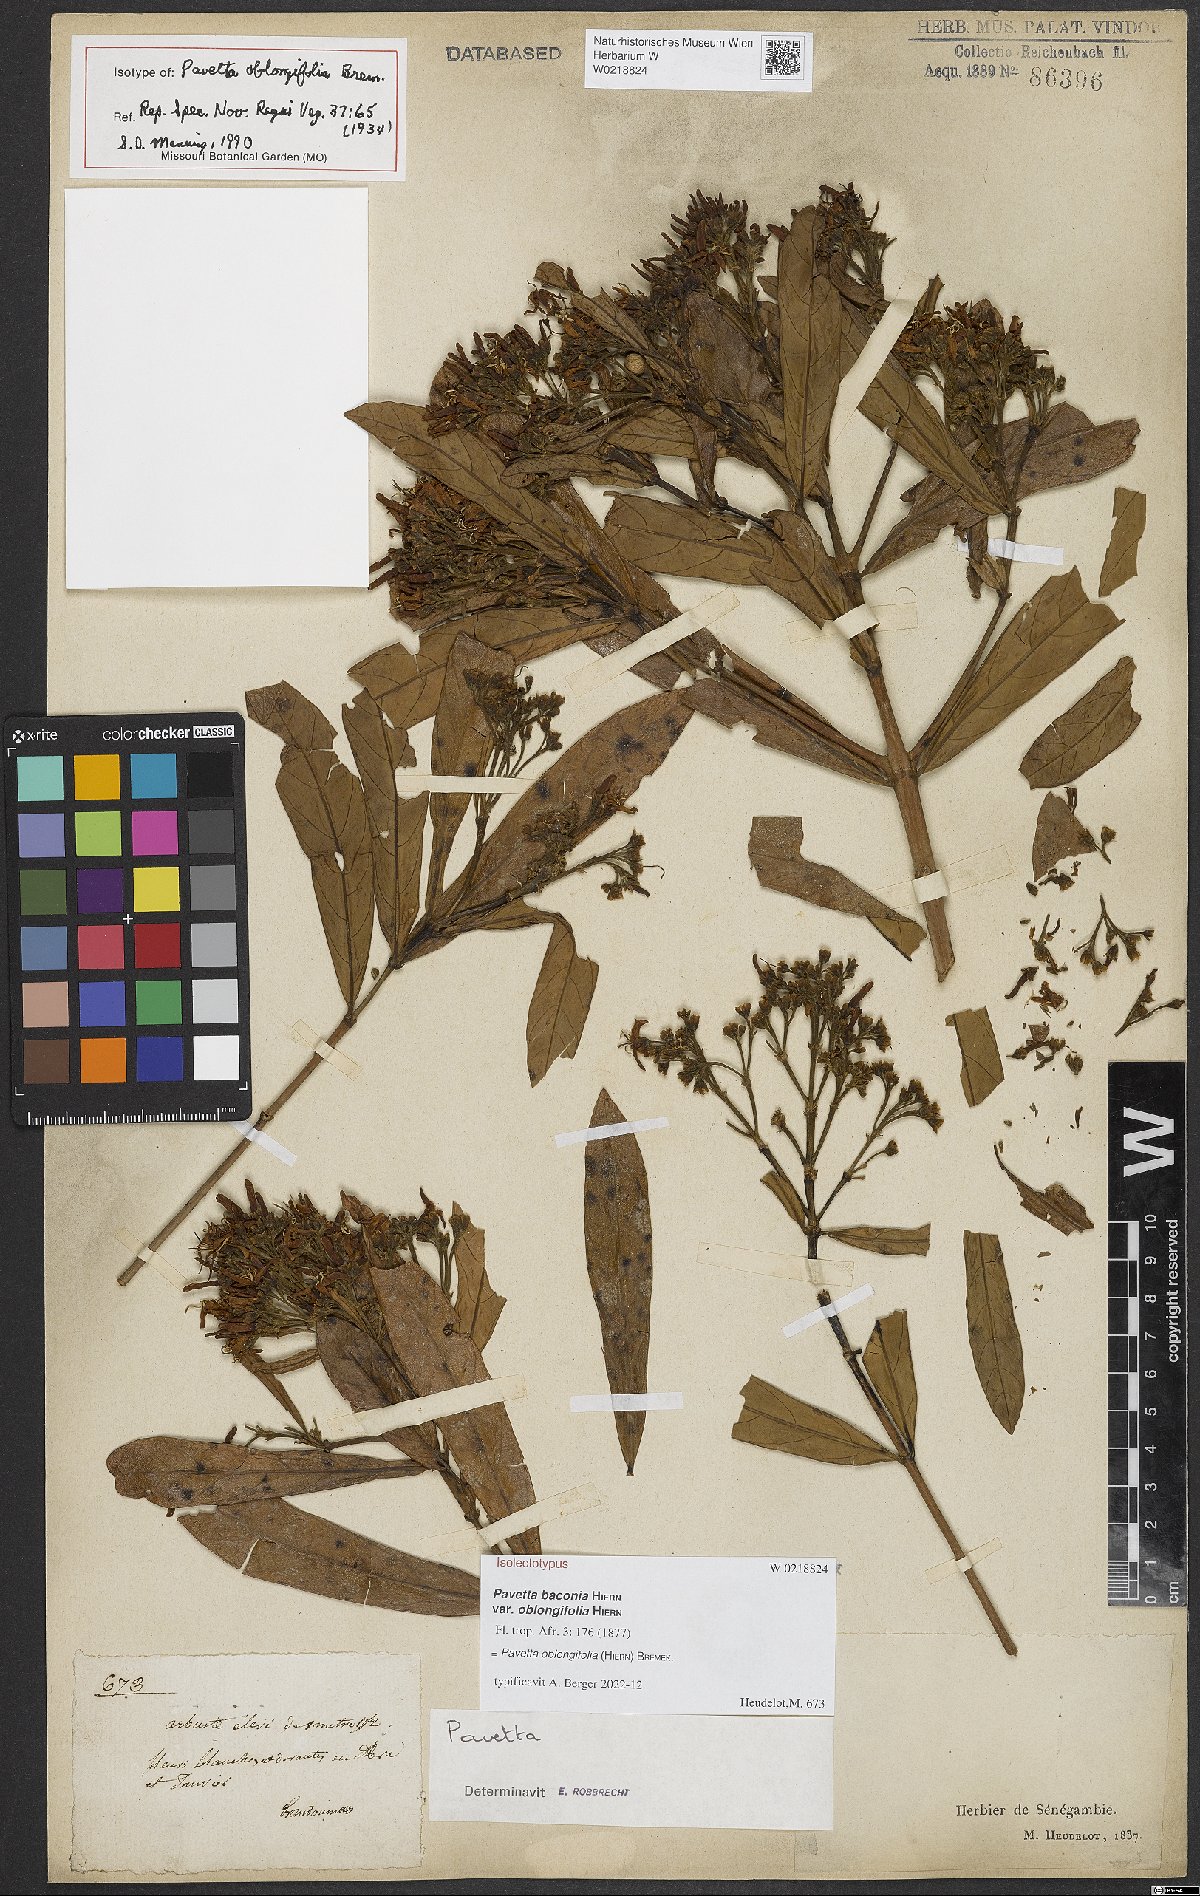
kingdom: Plantae
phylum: Tracheophyta
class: Magnoliopsida
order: Gentianales
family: Rubiaceae
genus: Pavetta
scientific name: Pavetta oblongifolia
